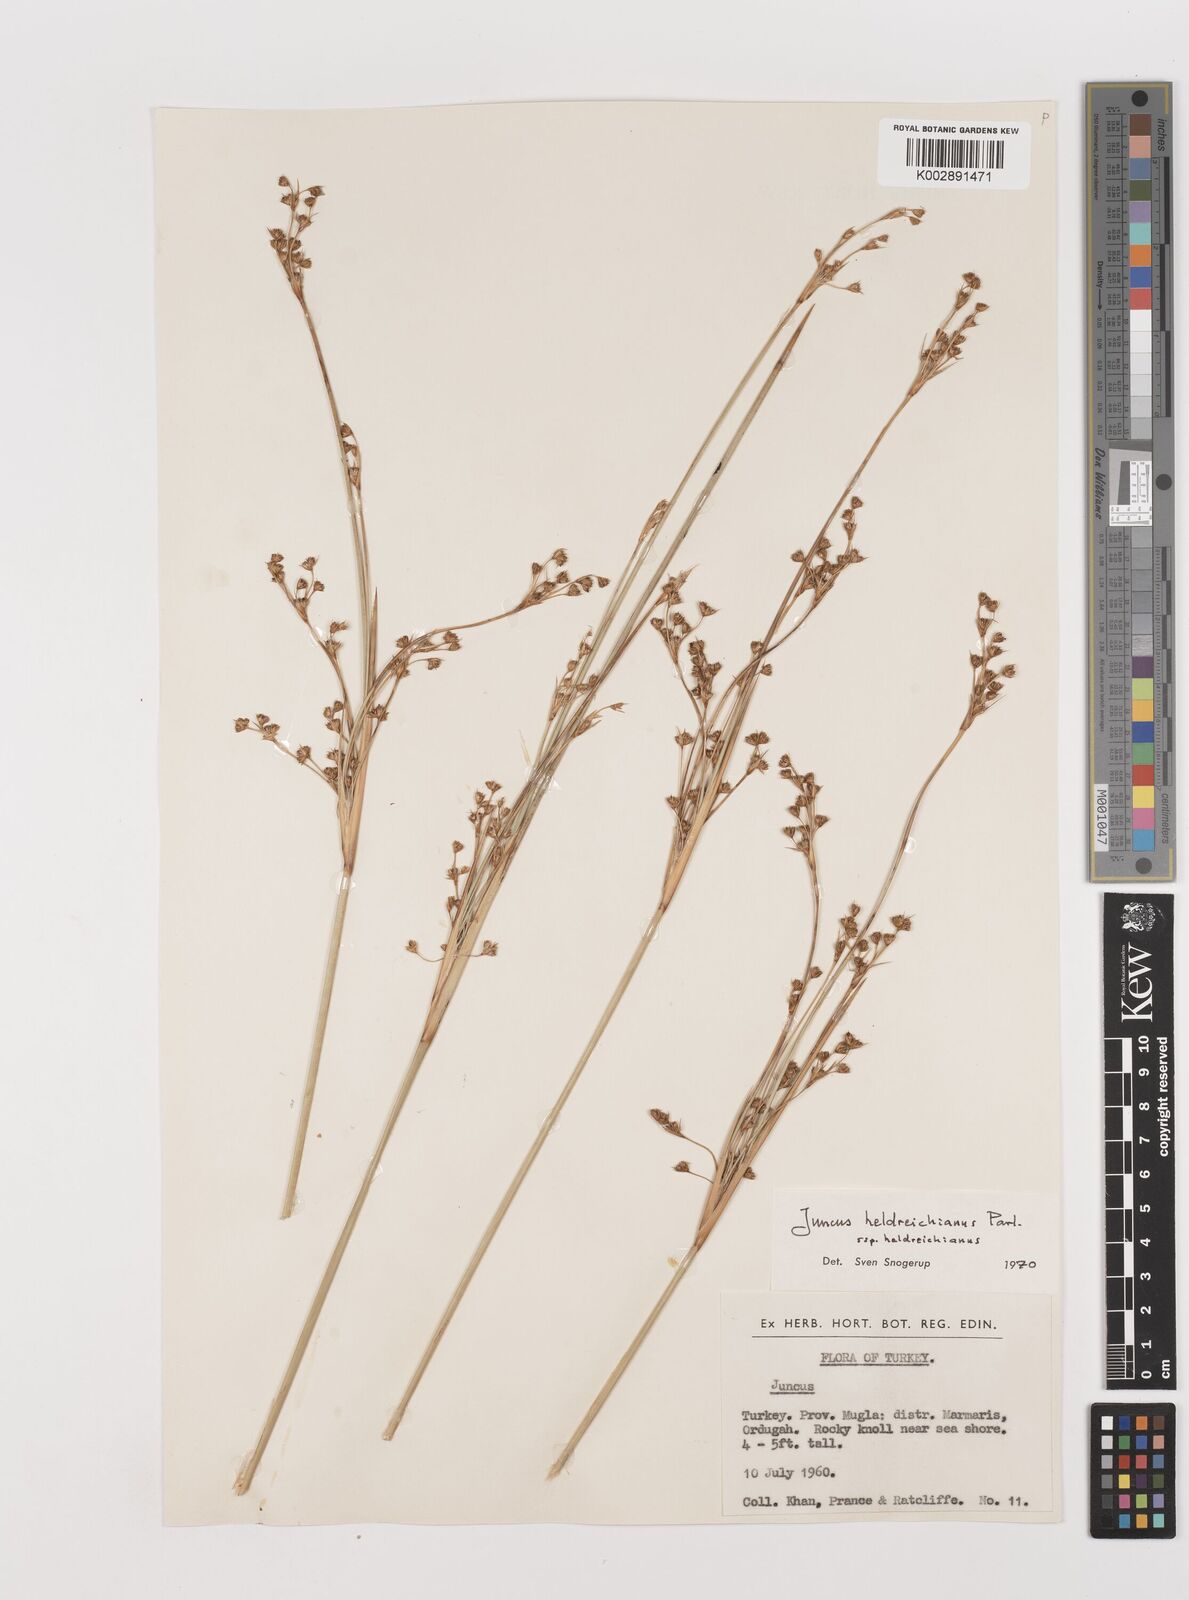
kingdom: Plantae
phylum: Tracheophyta
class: Liliopsida
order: Poales
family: Juncaceae
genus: Juncus
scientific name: Juncus heldreichianus
